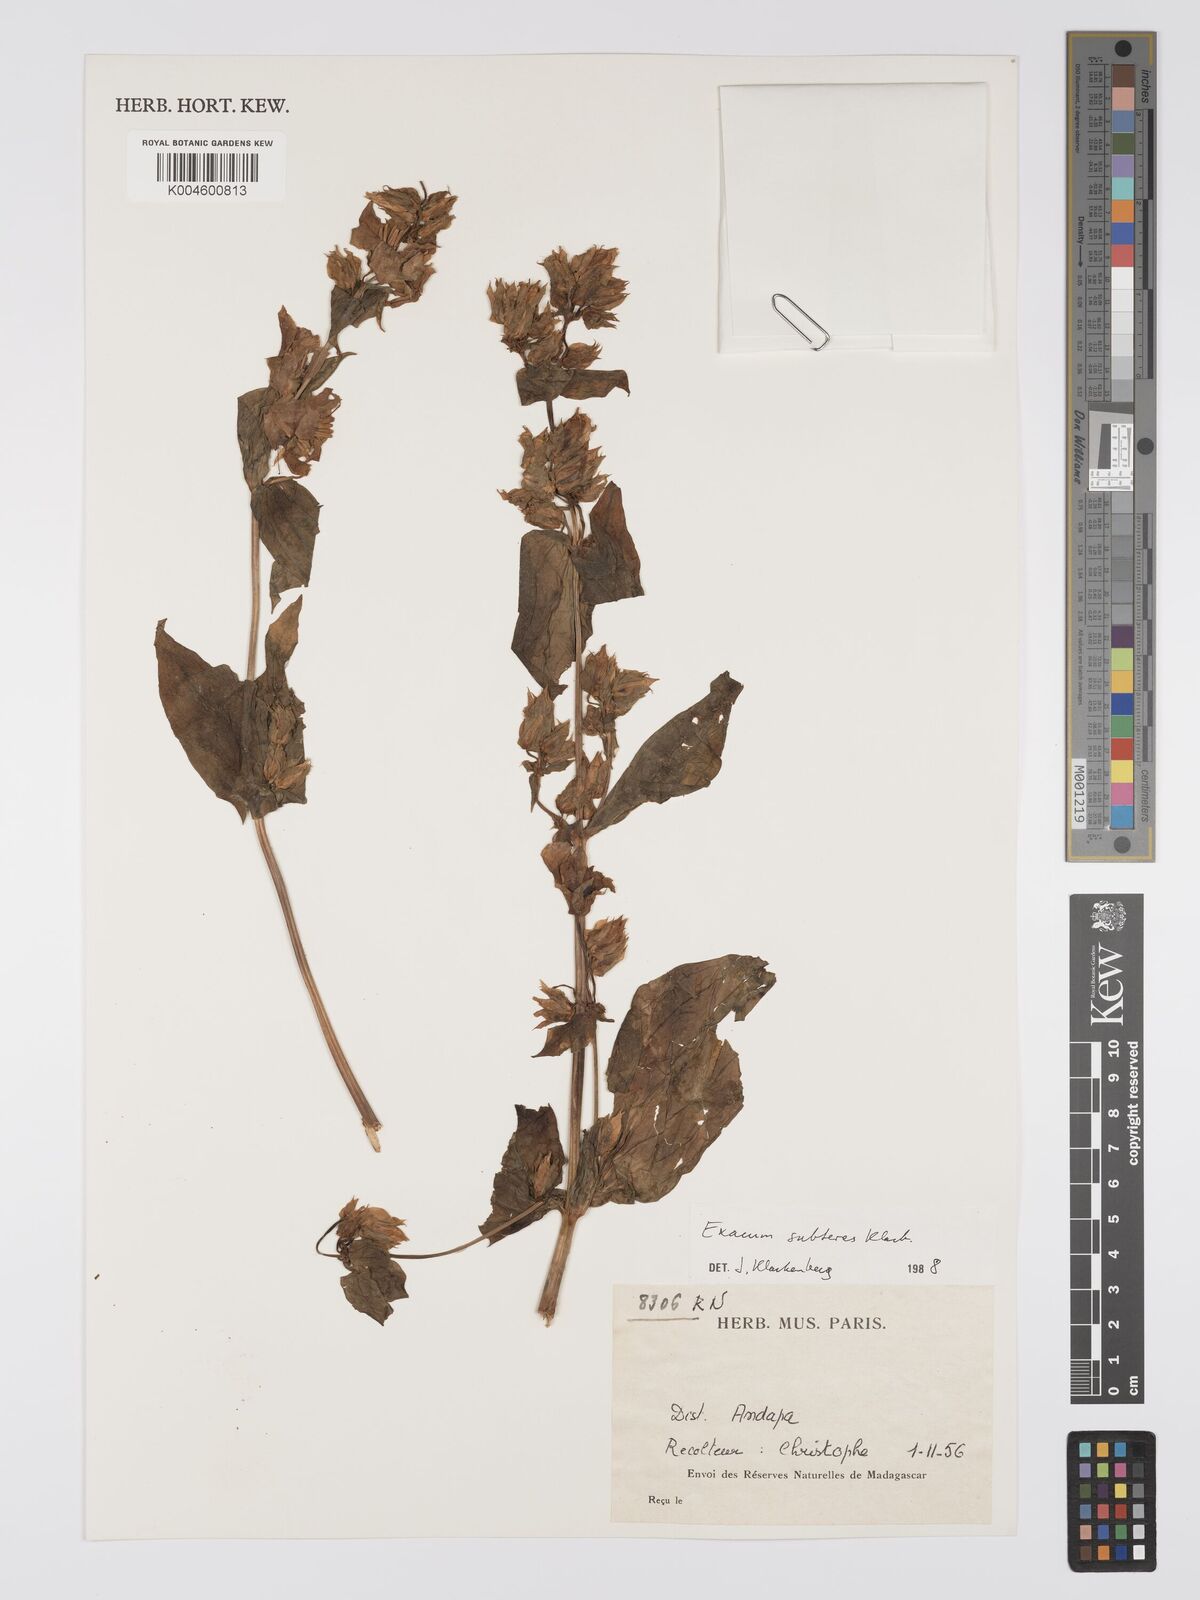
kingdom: Plantae
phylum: Tracheophyta
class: Magnoliopsida
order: Gentianales
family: Gentianaceae
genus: Exacum
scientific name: Exacum subteres
